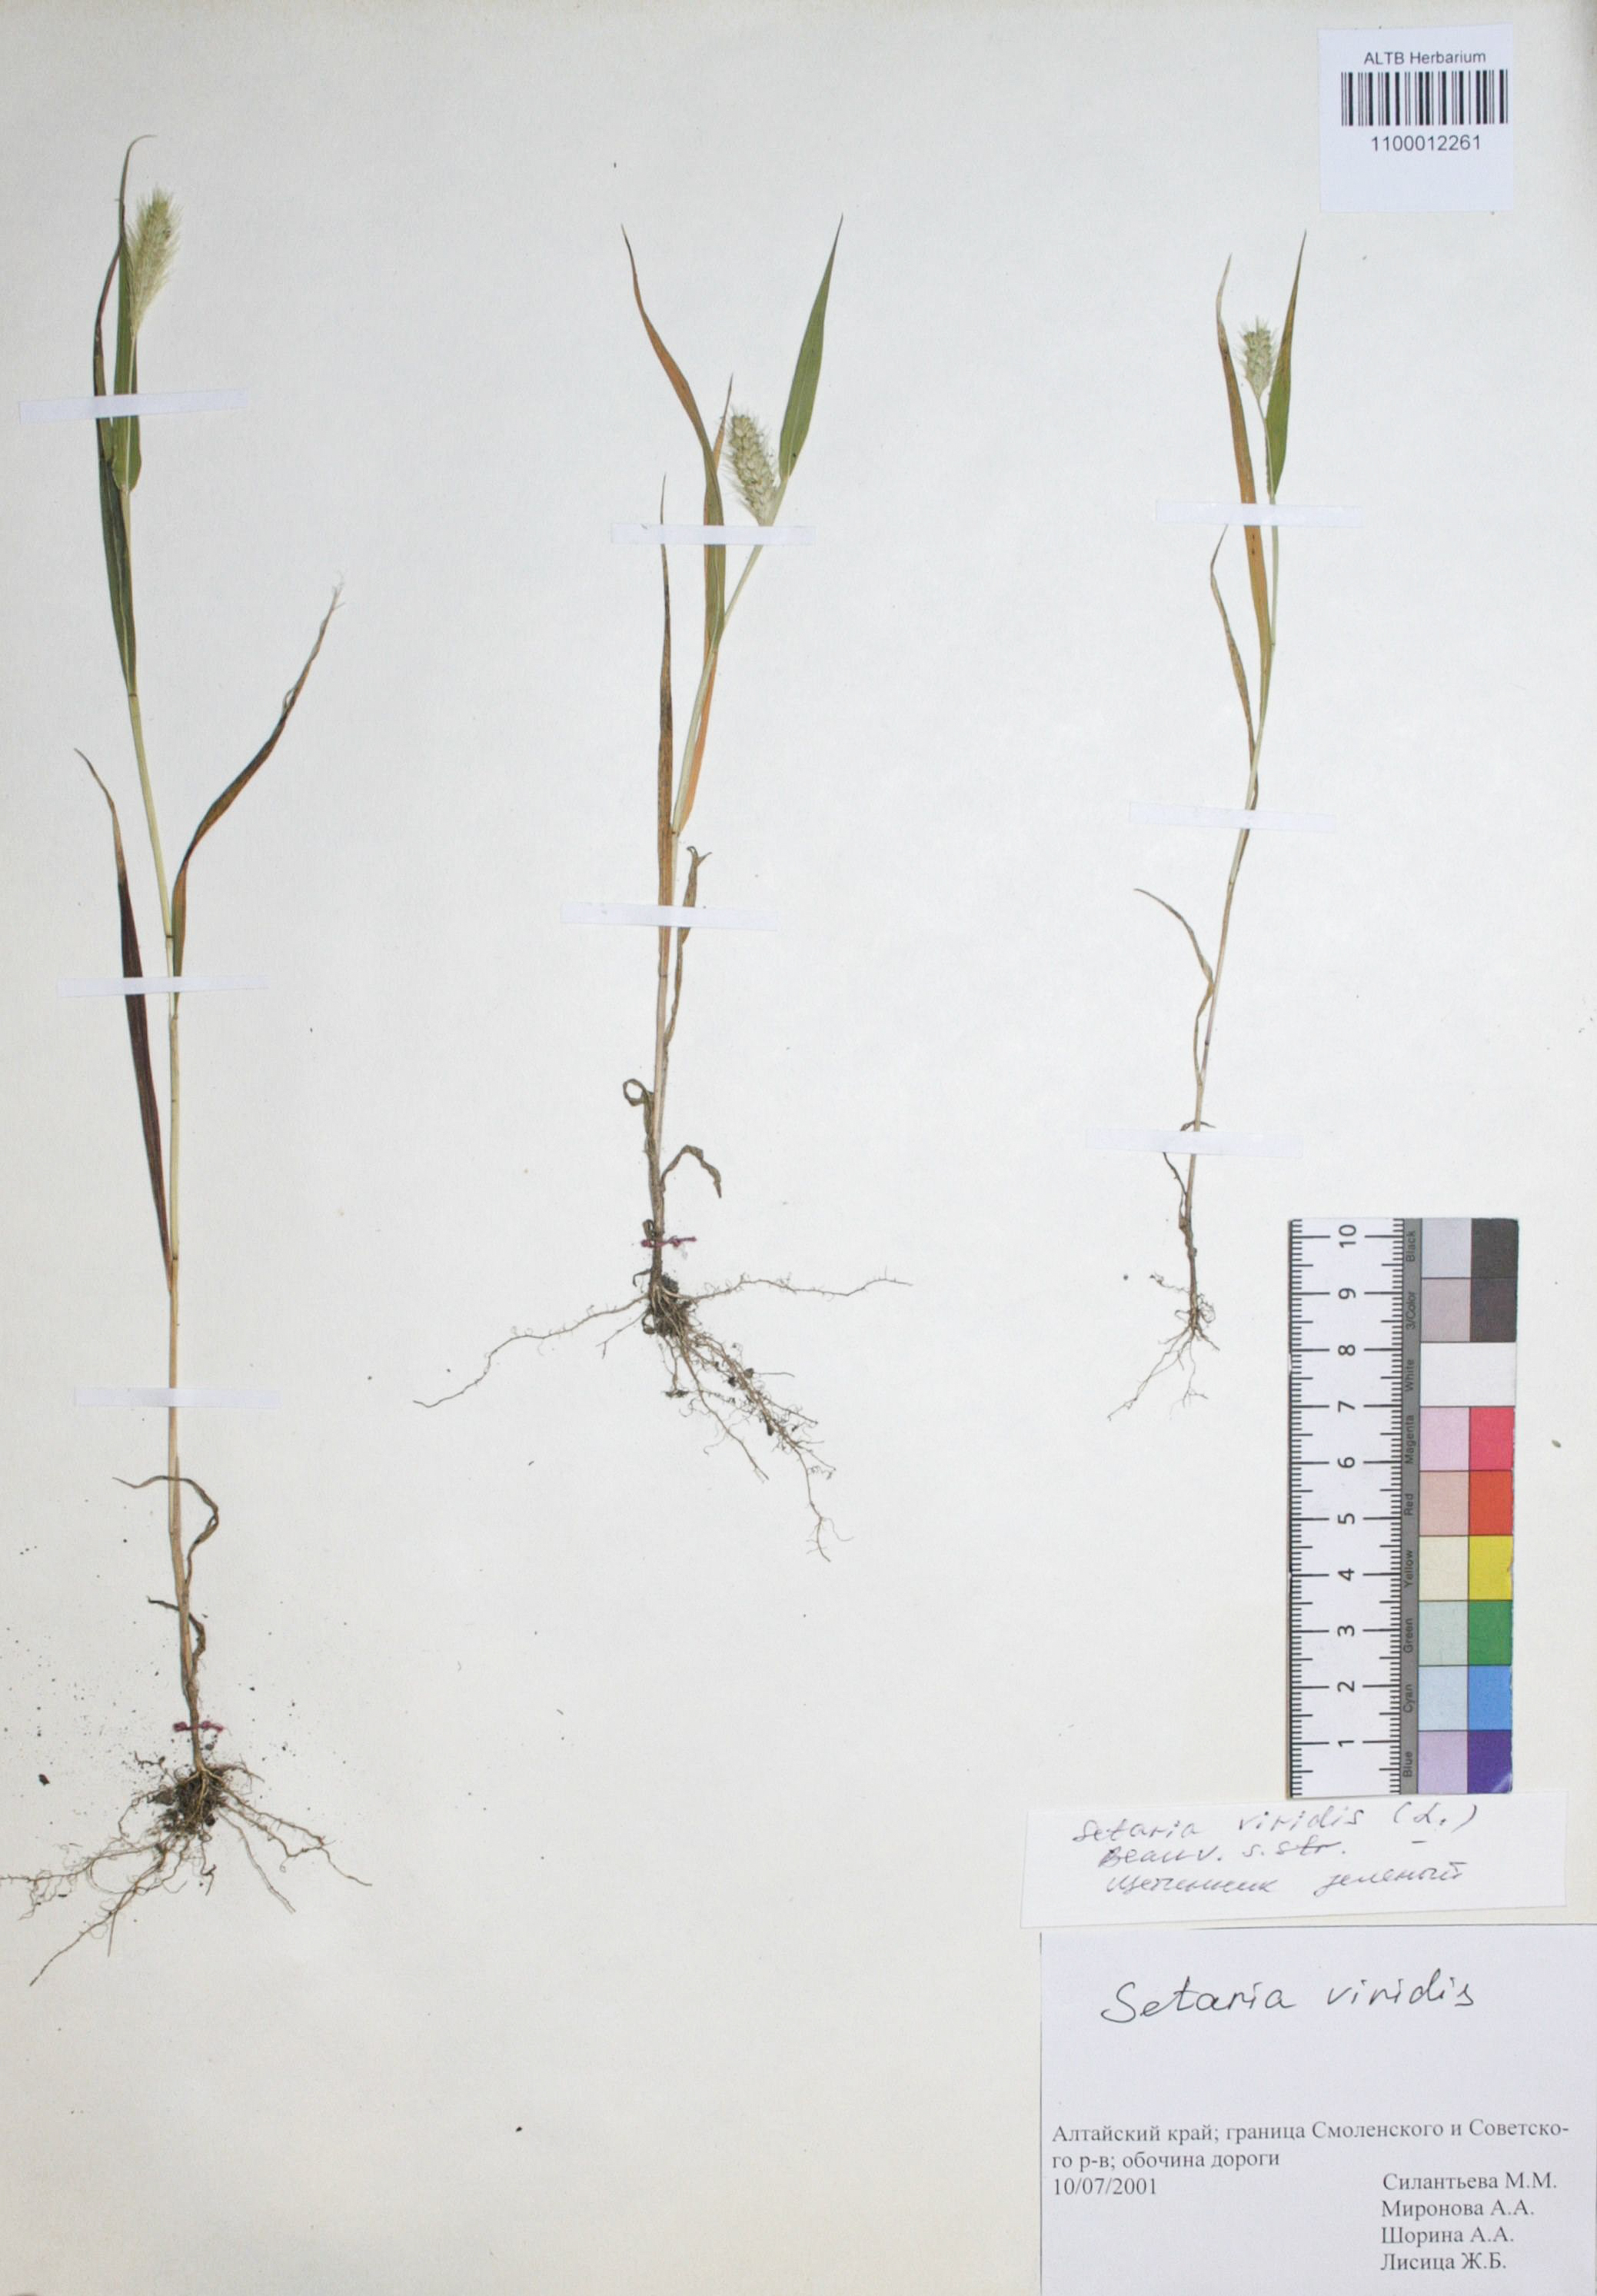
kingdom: Plantae
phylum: Tracheophyta
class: Liliopsida
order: Poales
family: Poaceae
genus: Setaria
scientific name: Setaria viridis
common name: Green bristlegrass
